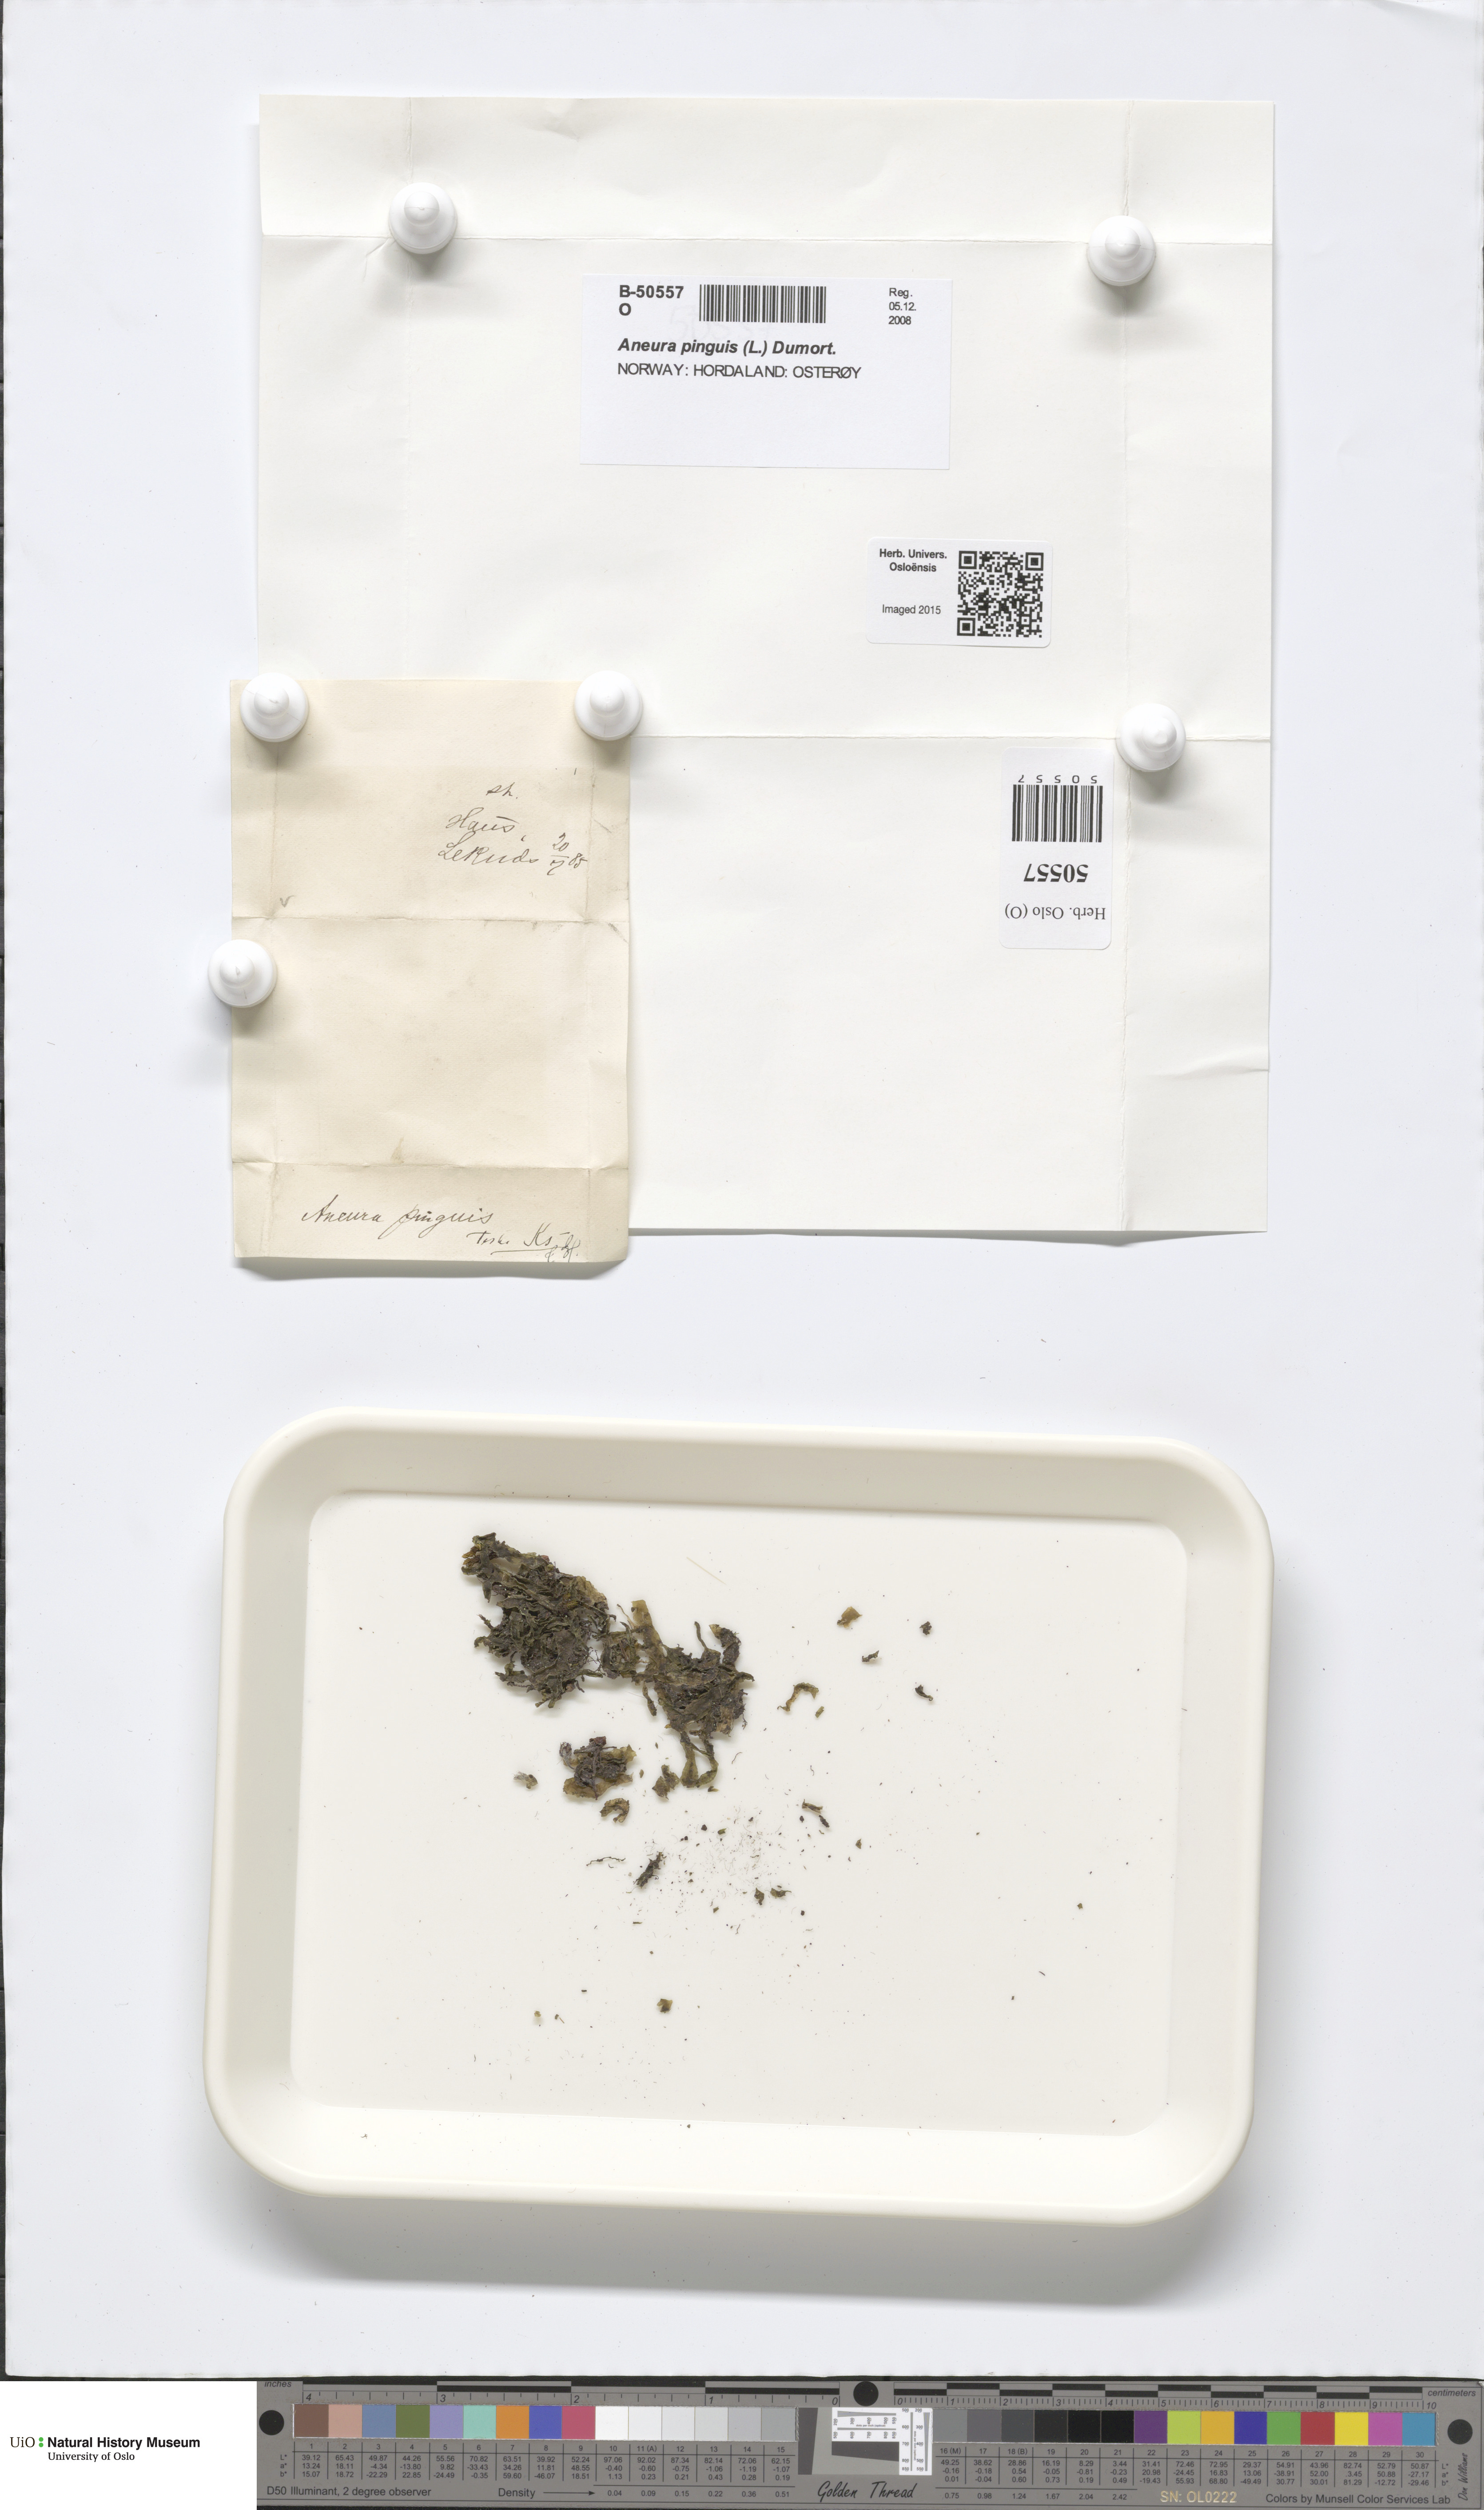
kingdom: Plantae
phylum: Marchantiophyta
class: Jungermanniopsida
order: Metzgeriales
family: Aneuraceae
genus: Aneura
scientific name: Aneura pinguis
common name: Common greasewort
